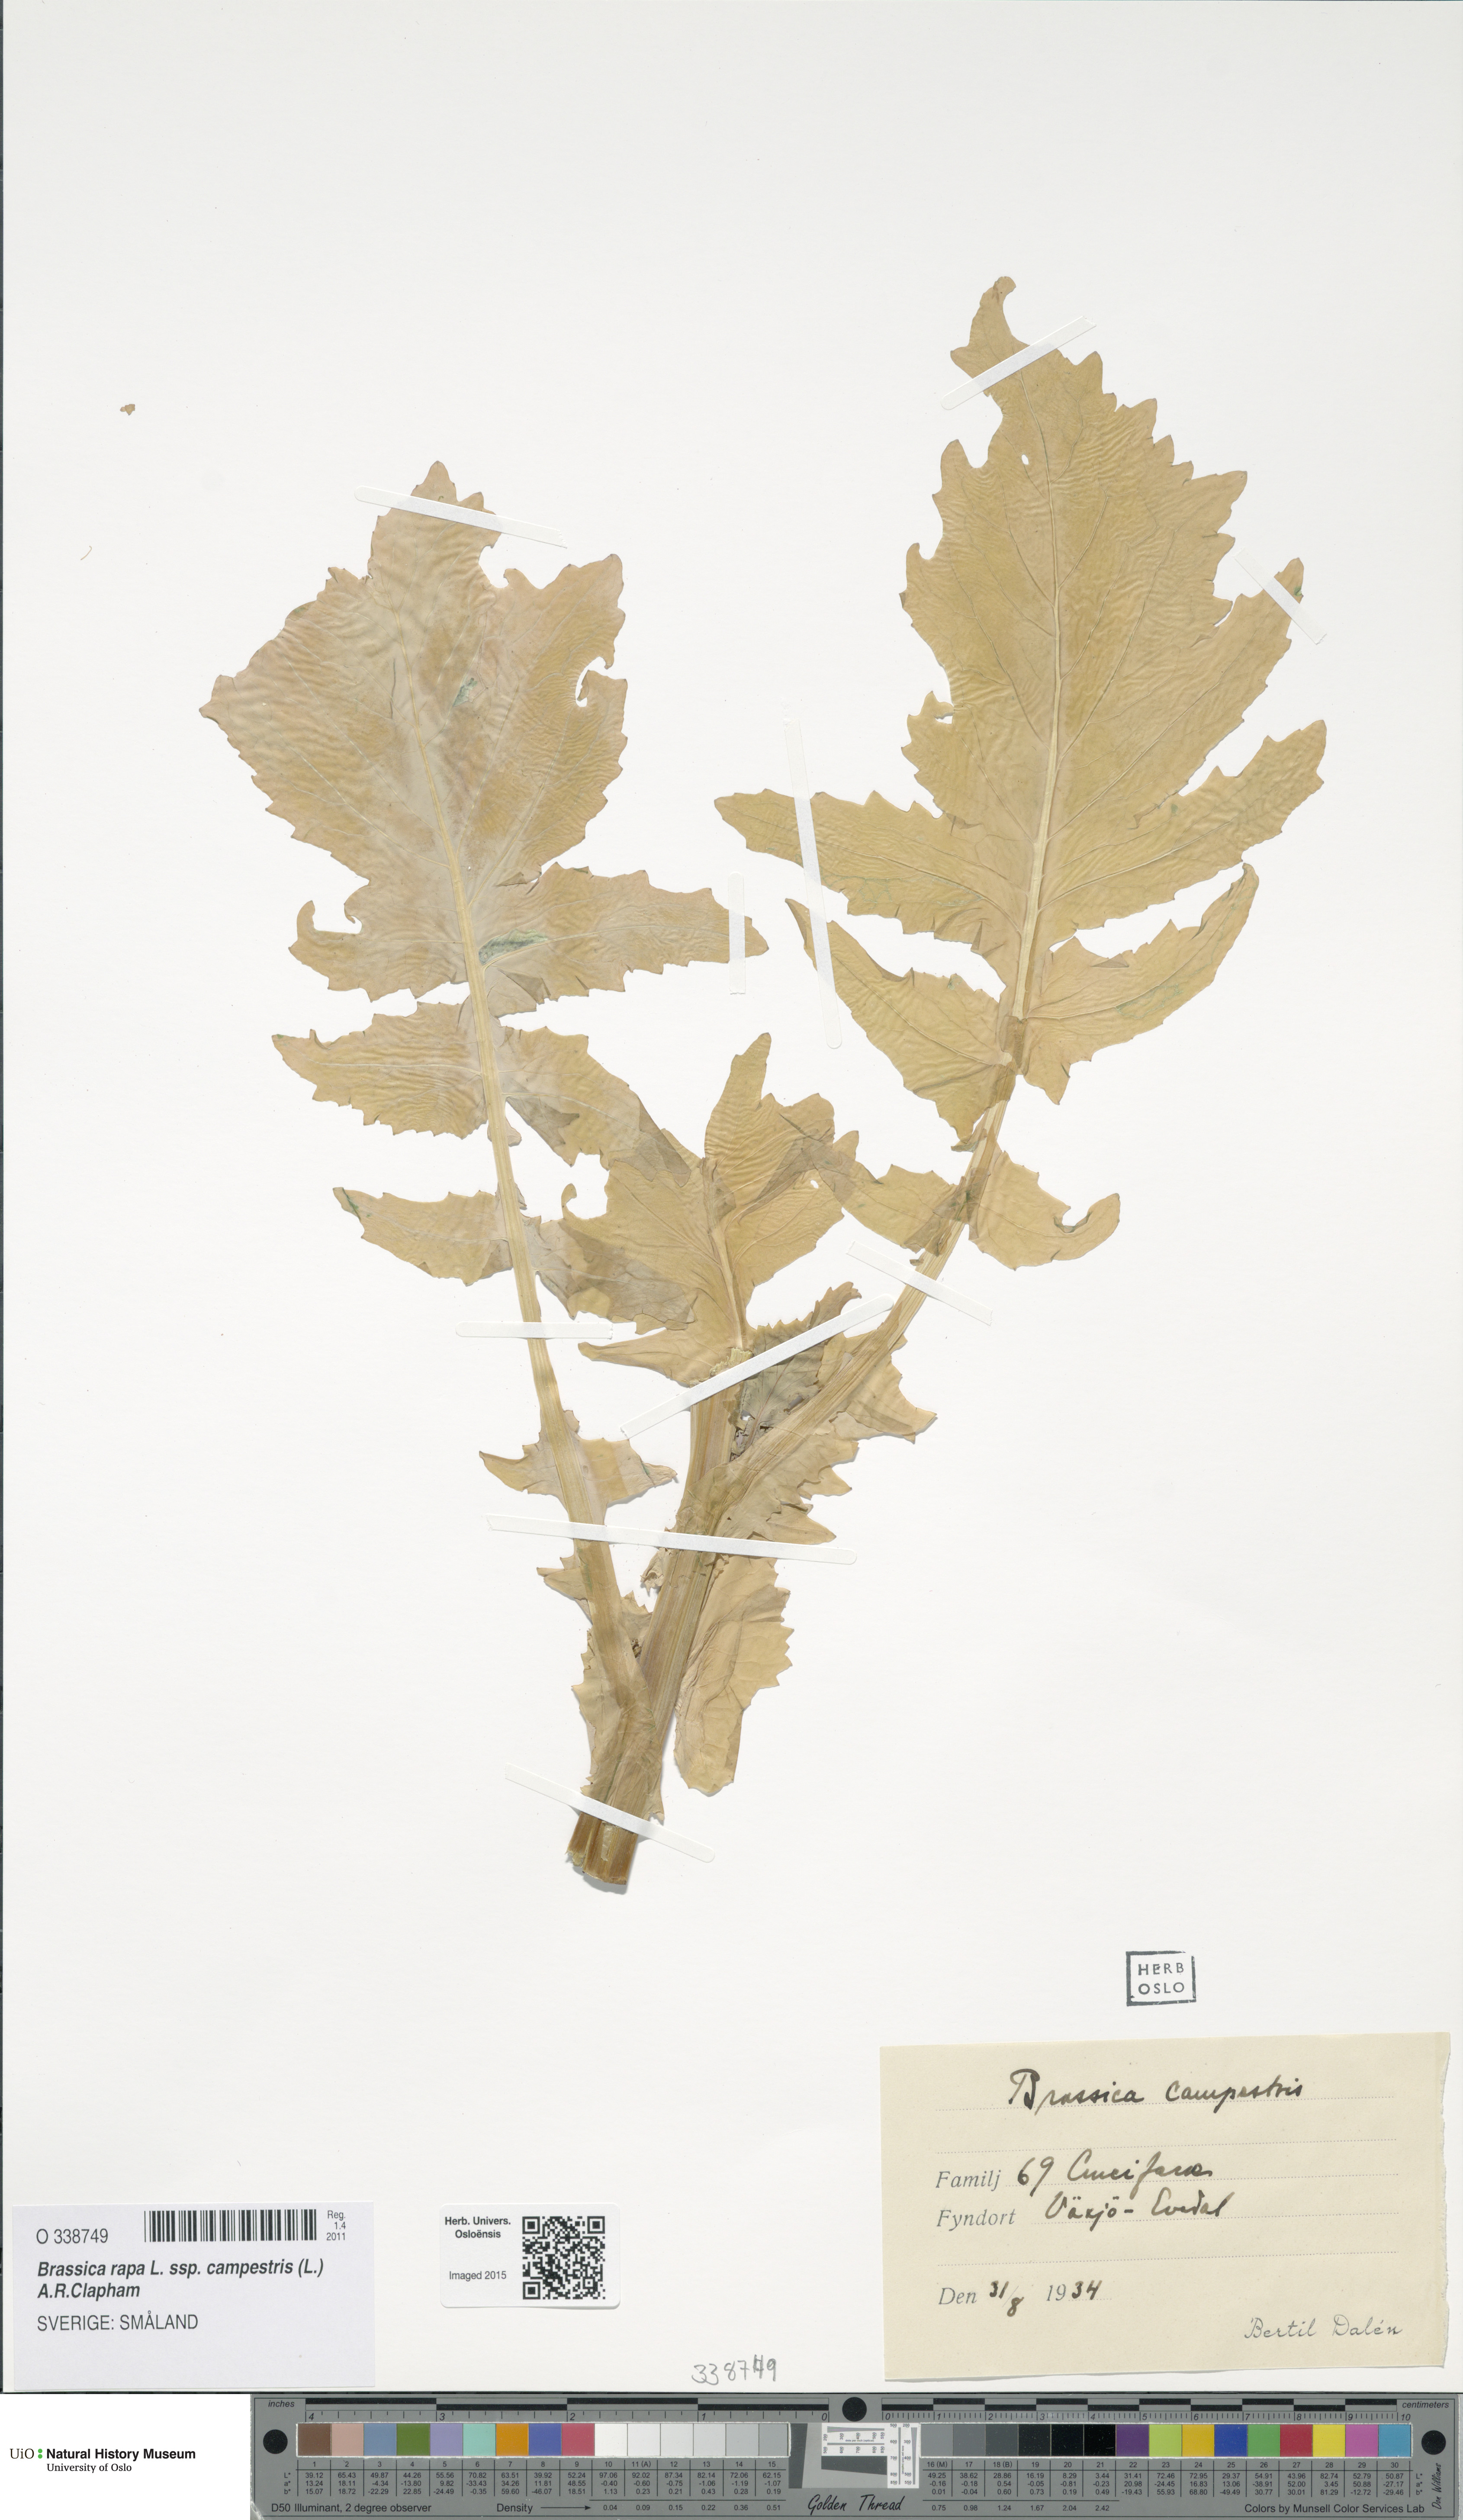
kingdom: Plantae
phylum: Tracheophyta
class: Magnoliopsida
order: Brassicales
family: Brassicaceae
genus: Brassica
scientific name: Brassica rapa
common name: Field mustard
